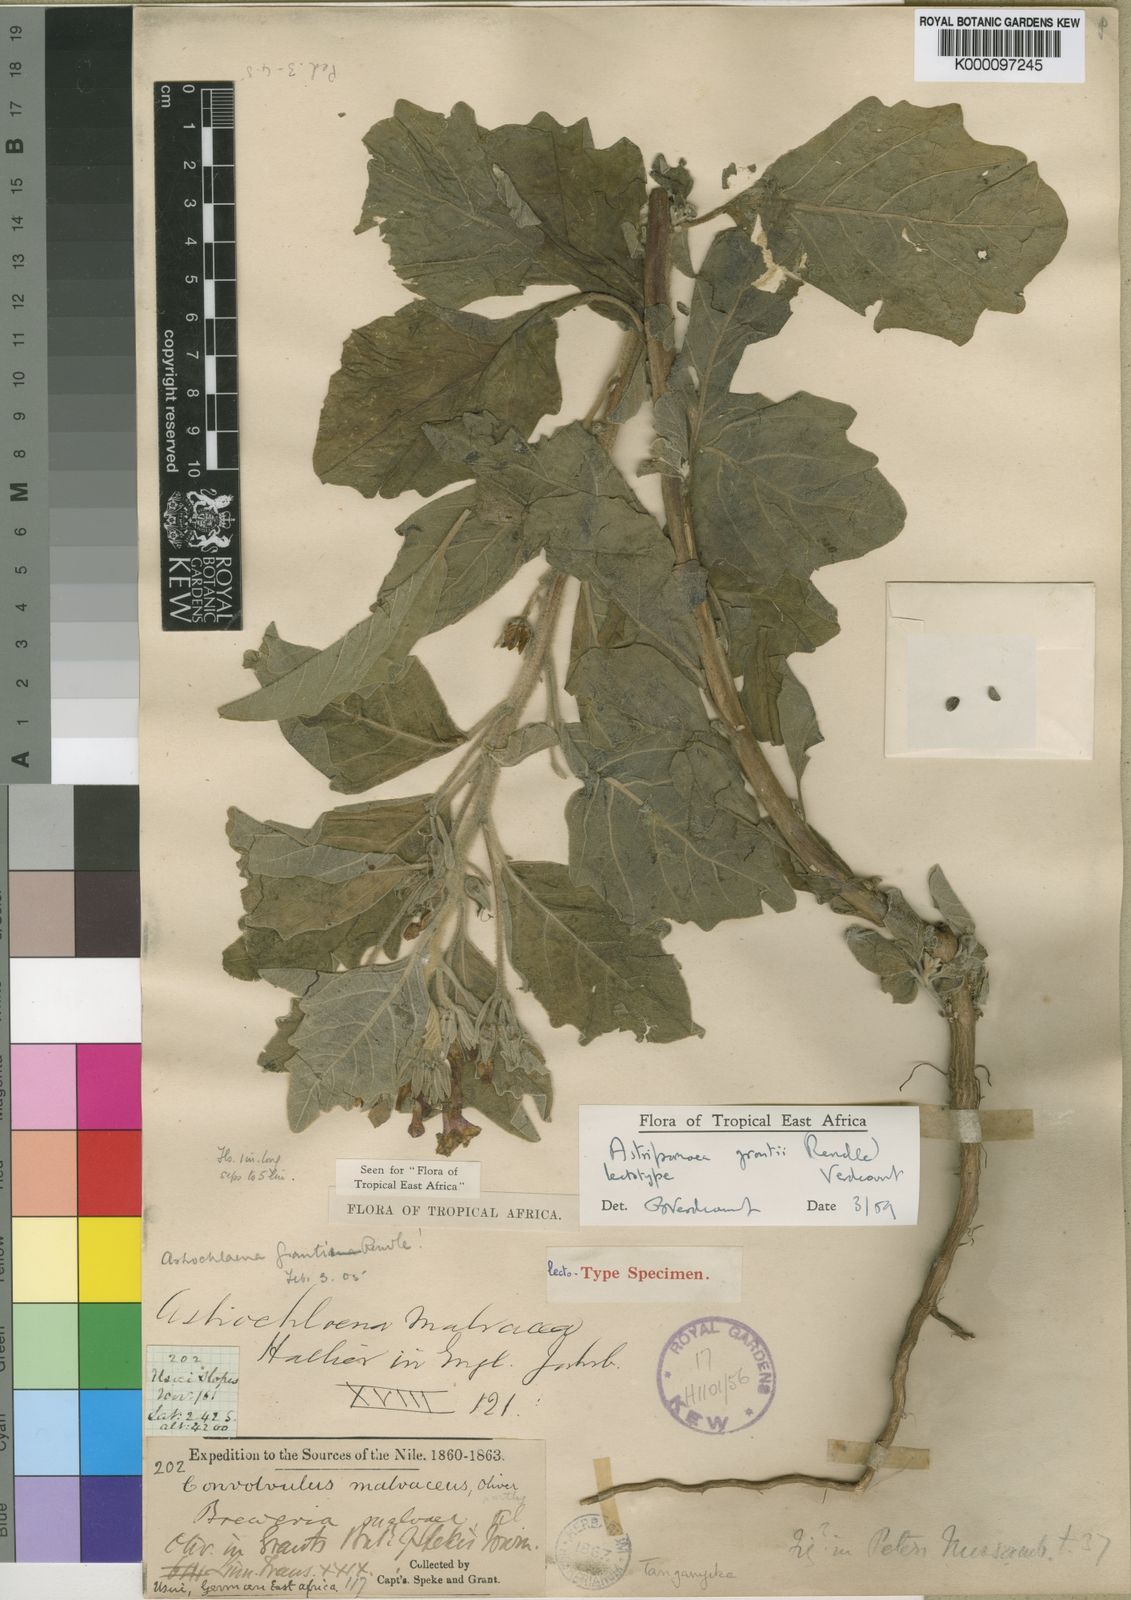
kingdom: Plantae
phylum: Tracheophyta
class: Magnoliopsida
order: Solanales
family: Convolvulaceae
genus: Astripomoea
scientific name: Astripomoea grantii
